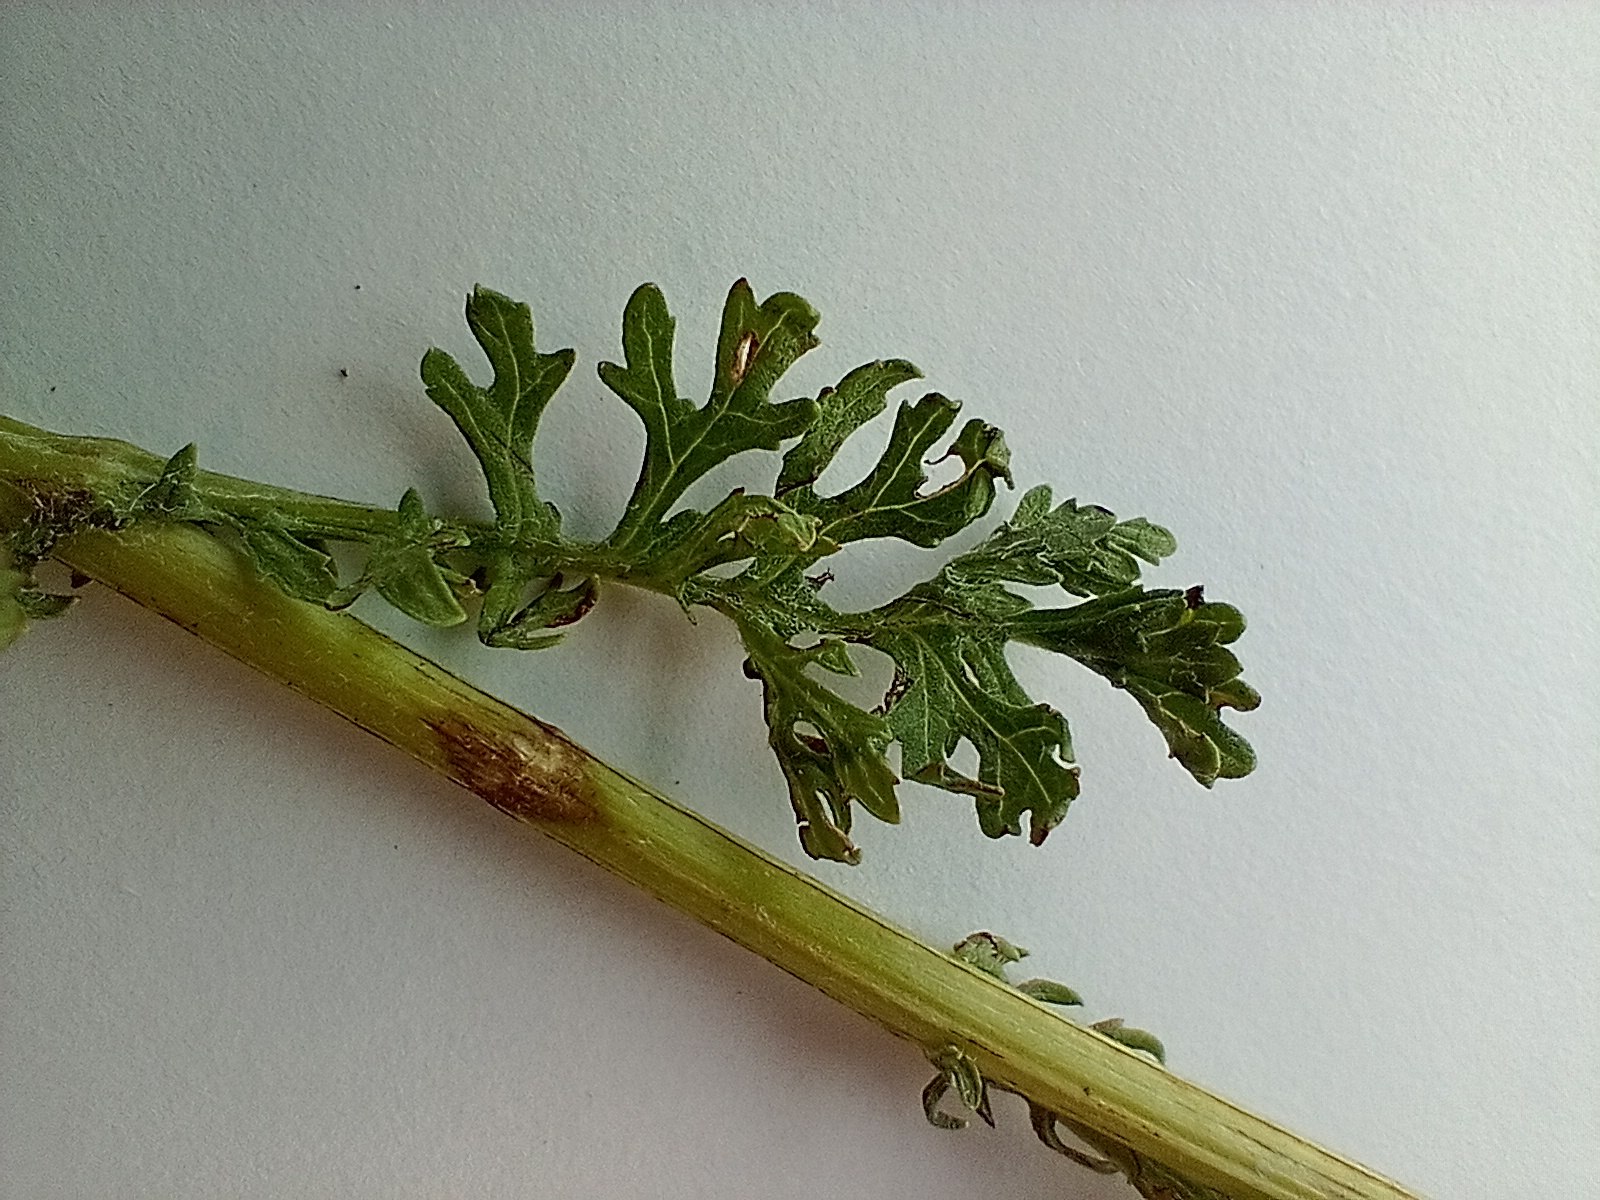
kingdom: Plantae
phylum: Tracheophyta
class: Magnoliopsida
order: Asterales
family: Asteraceae
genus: Jacobaea
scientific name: Jacobaea vulgaris
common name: Eng-brandbæger
